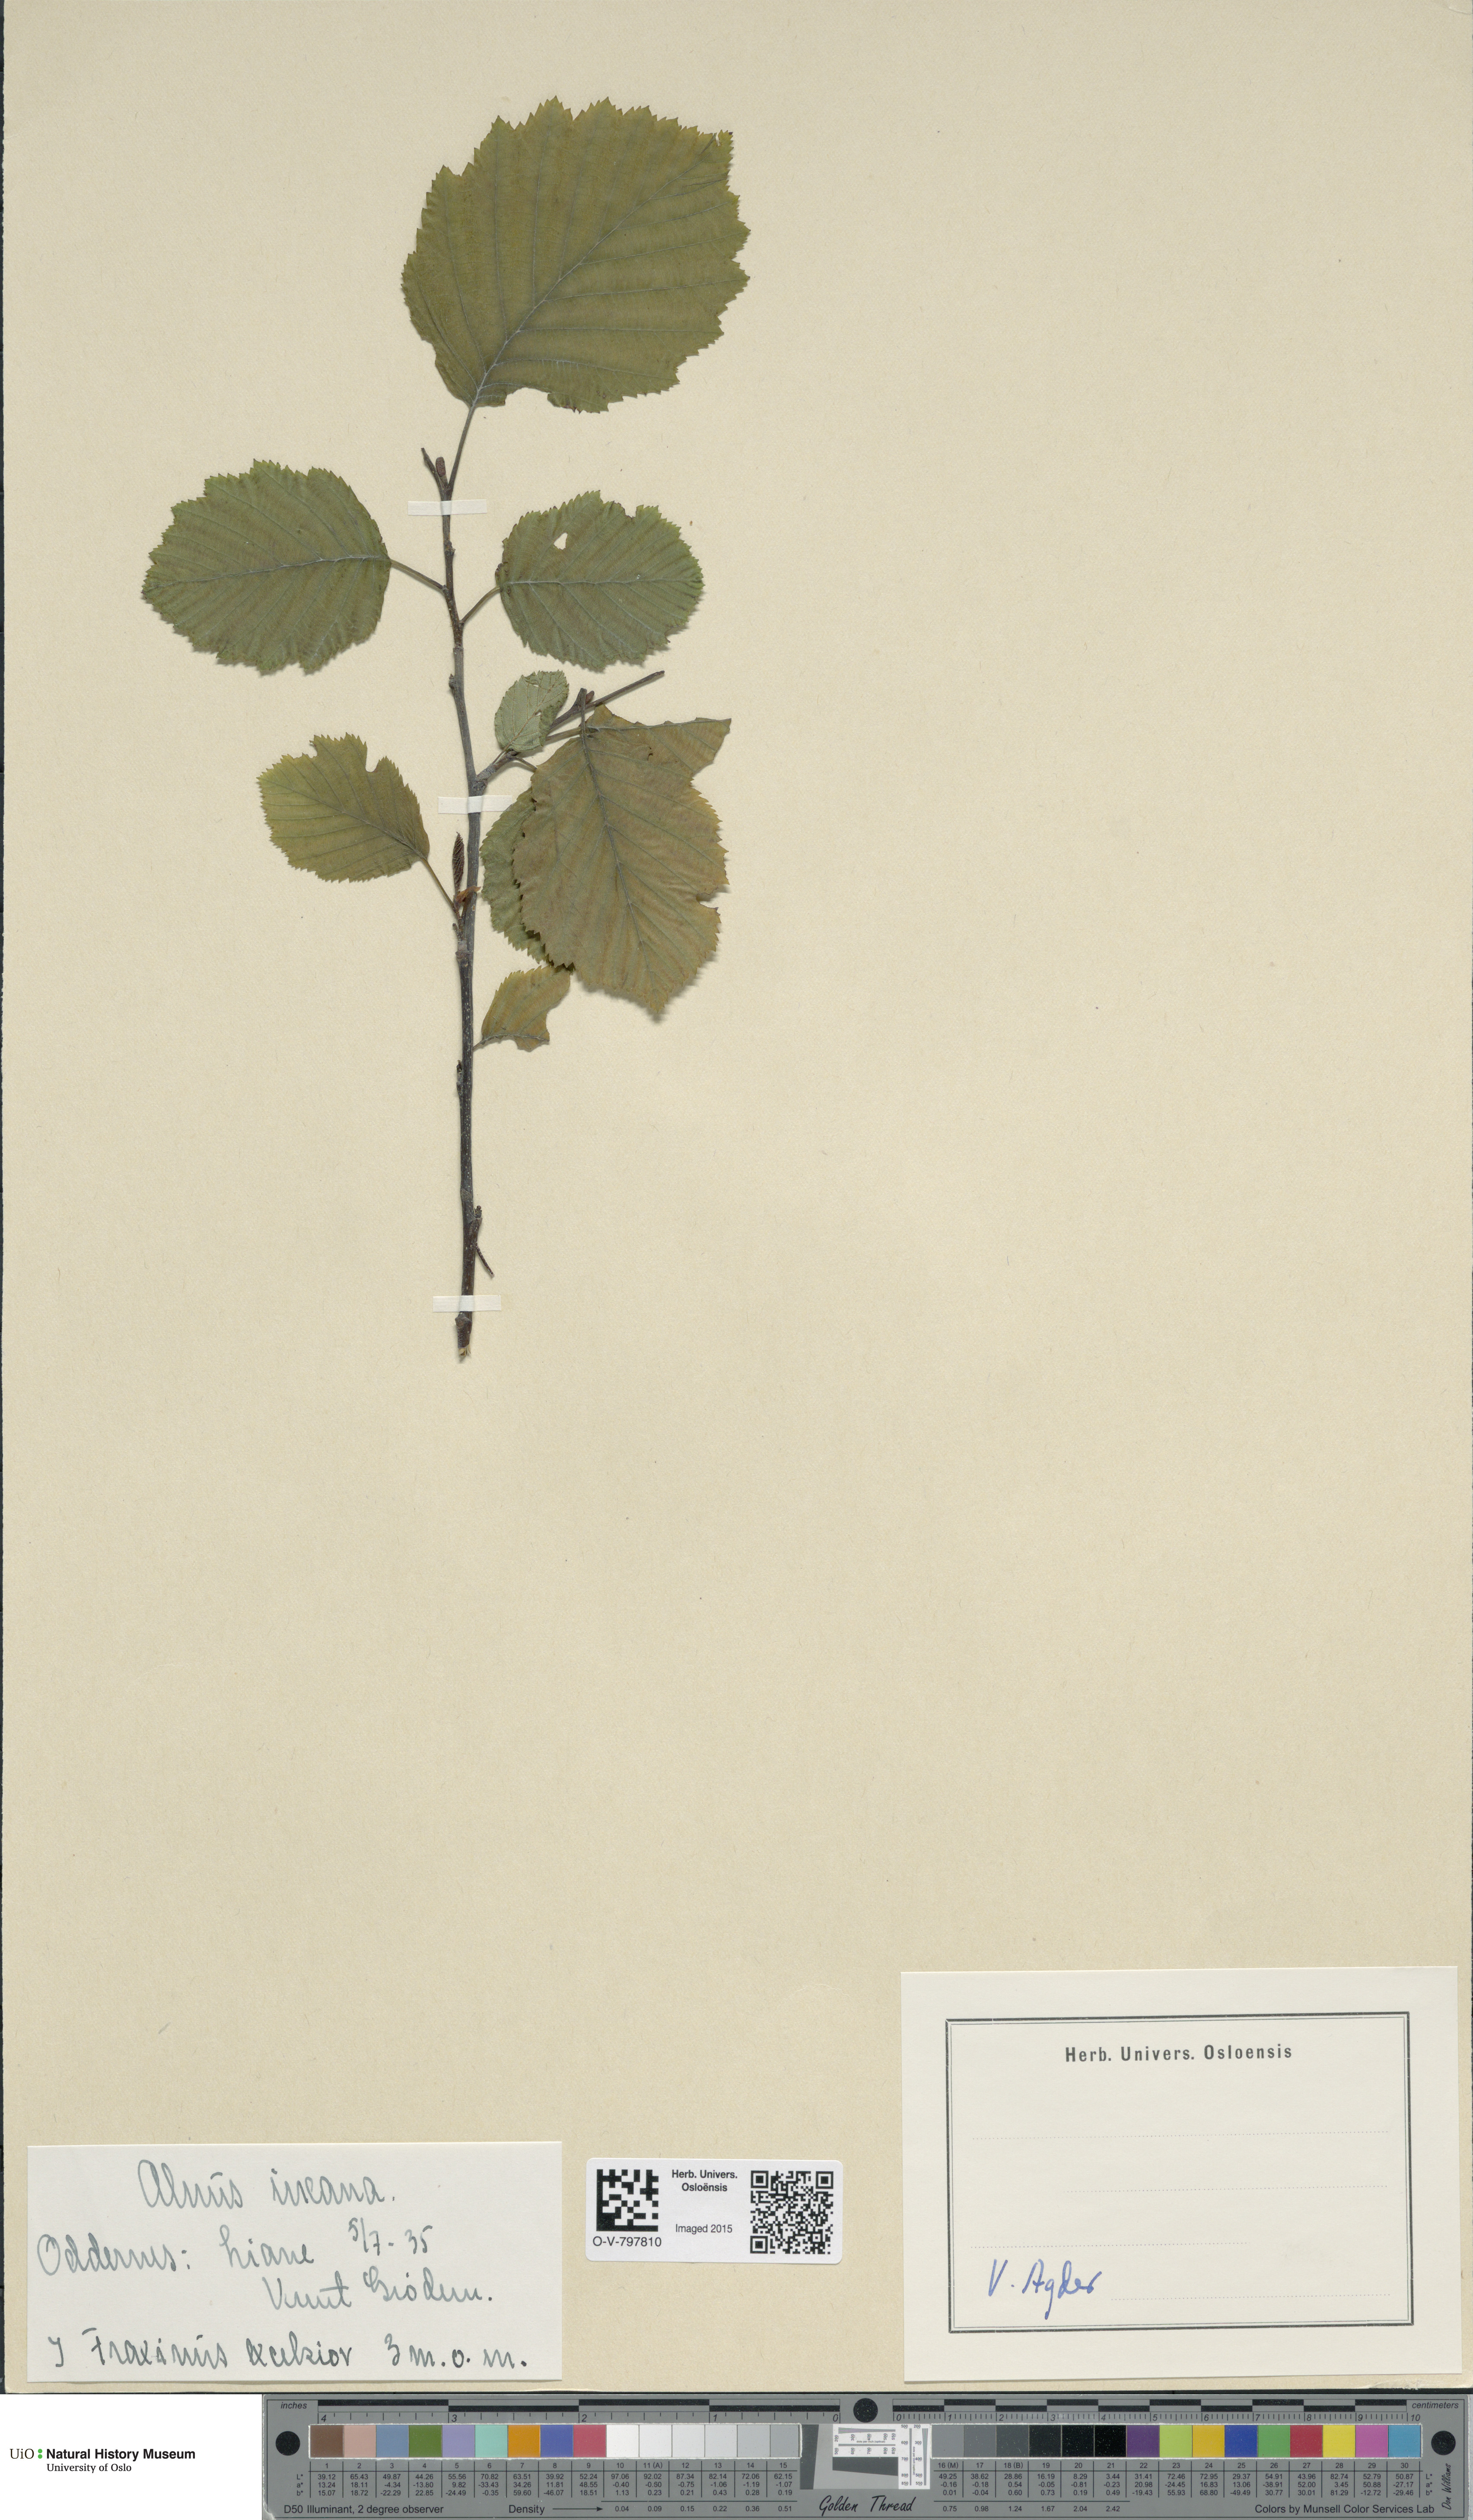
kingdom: Plantae
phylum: Tracheophyta
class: Magnoliopsida
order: Fagales
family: Betulaceae
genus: Alnus
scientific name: Alnus incana
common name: Grey alder
